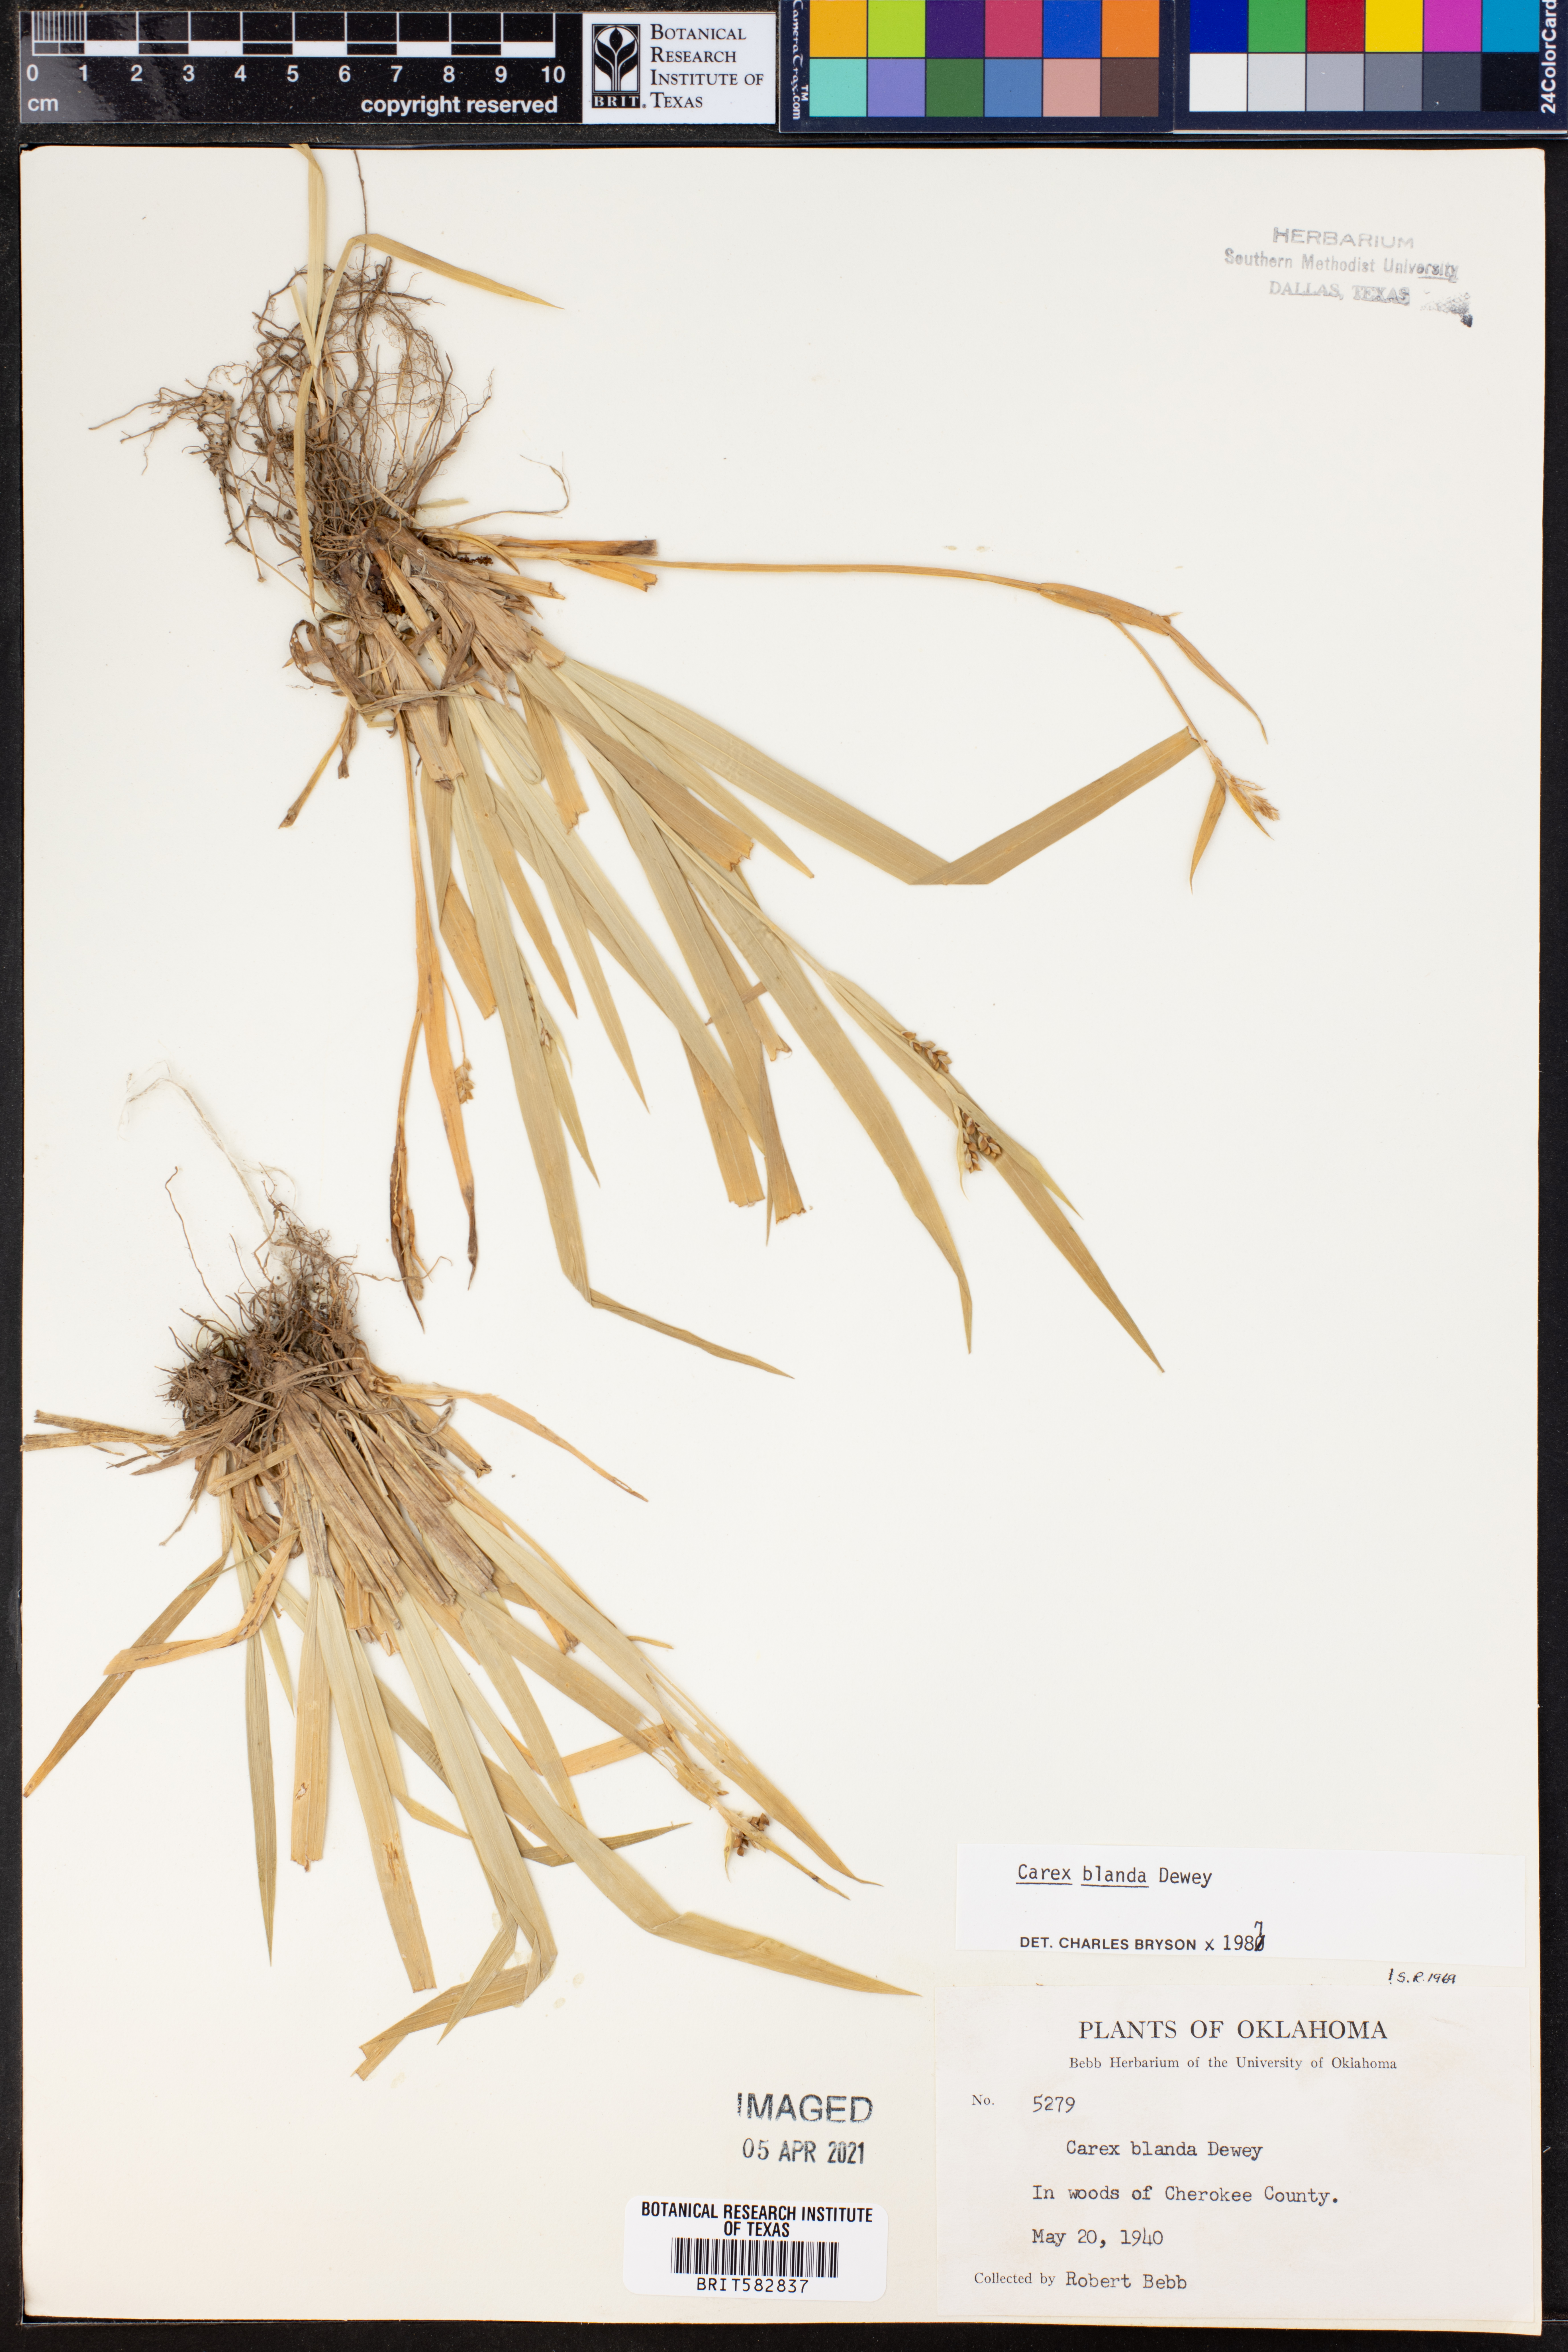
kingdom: Plantae
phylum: Tracheophyta
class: Liliopsida
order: Poales
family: Cyperaceae
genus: Carex
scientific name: Carex blanda
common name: Bland sedge
